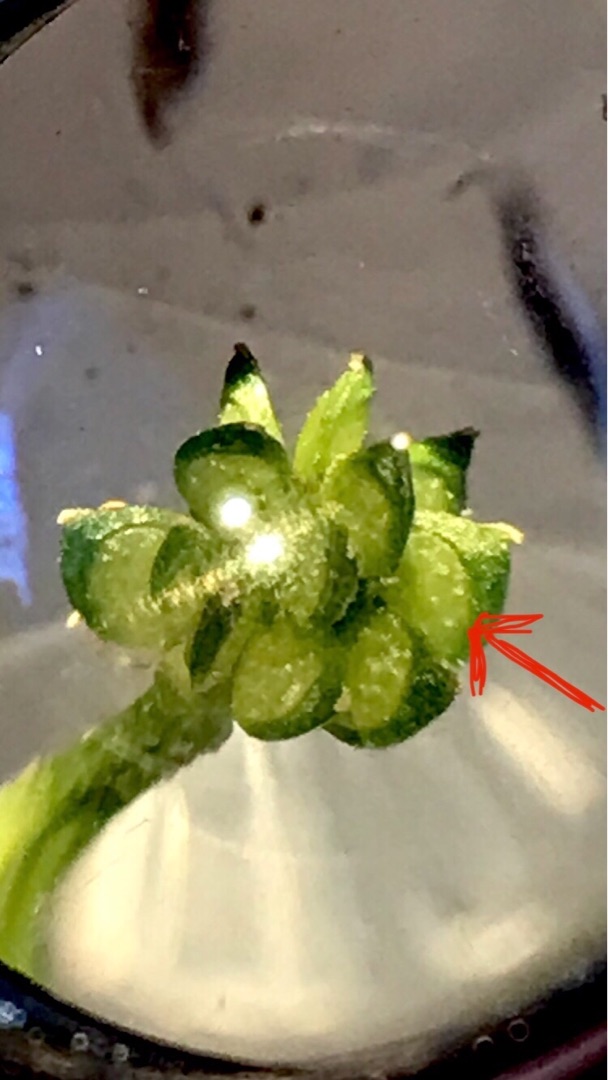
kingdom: Plantae
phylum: Tracheophyta
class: Magnoliopsida
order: Ranunculales
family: Ranunculaceae
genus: Ranunculus
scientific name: Ranunculus sardous
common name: Stivhåret ranunkel
